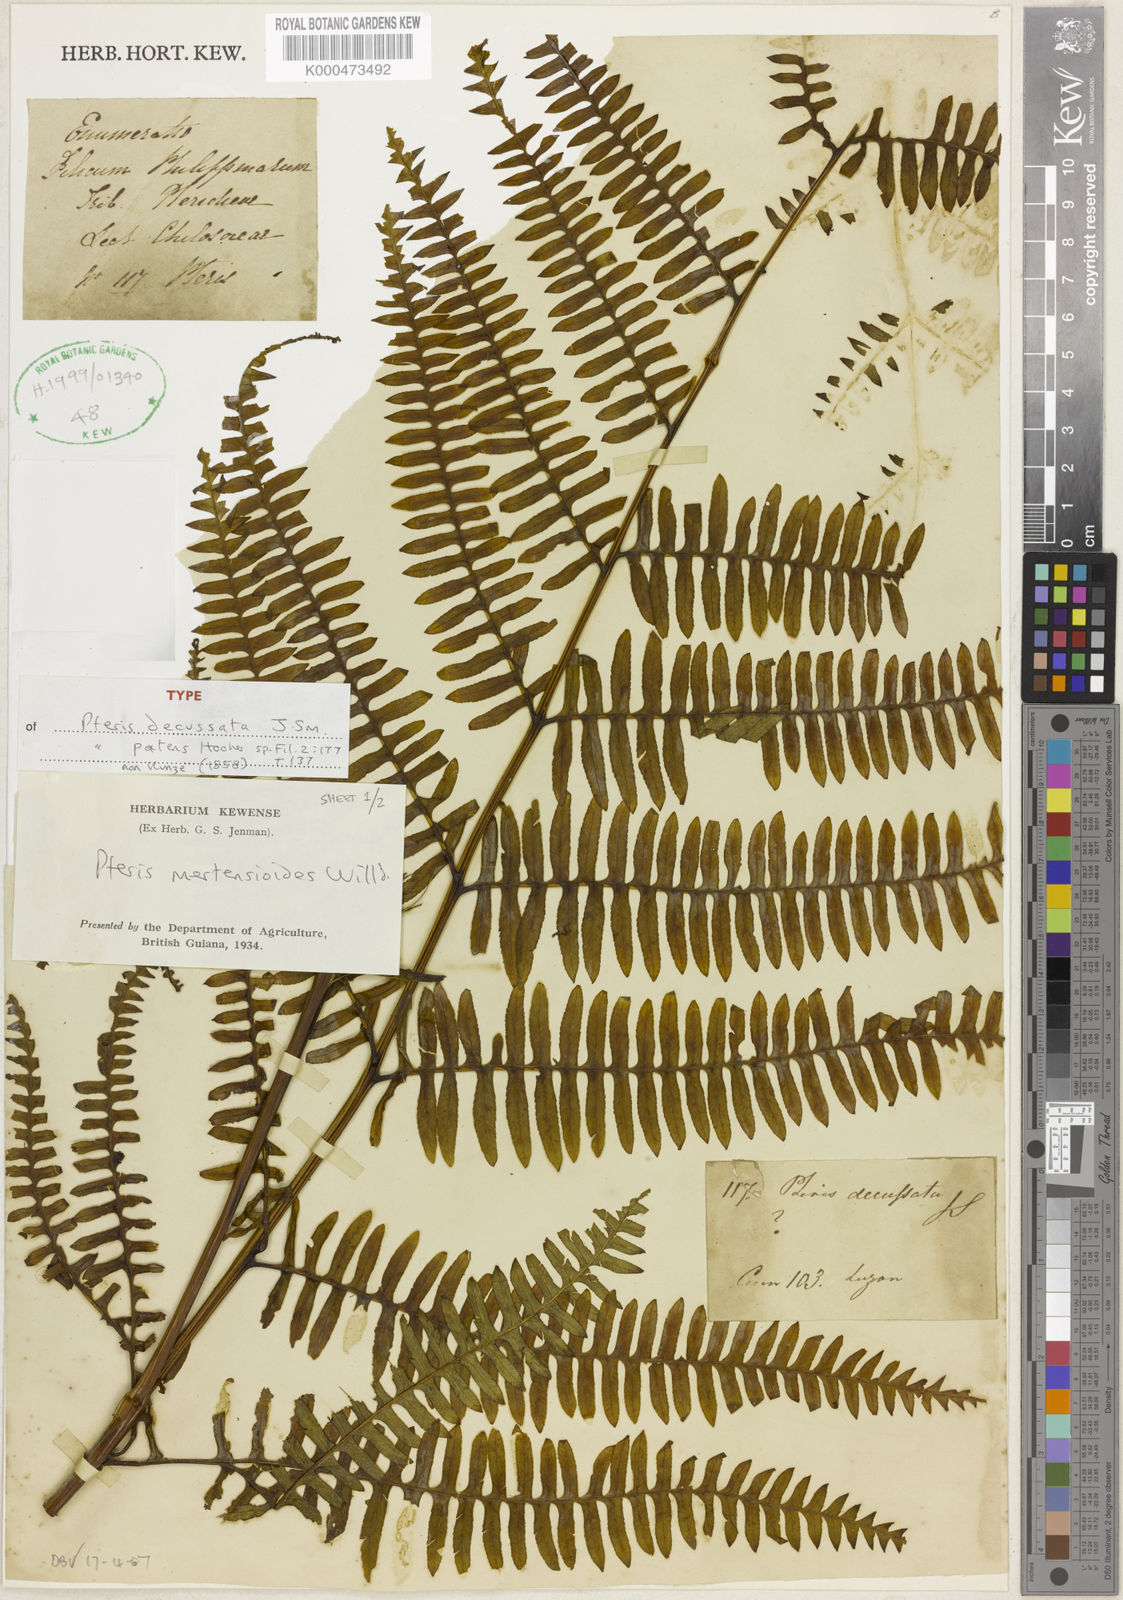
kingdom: Plantae
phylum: Tracheophyta
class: Polypodiopsida
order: Polypodiales
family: Pteridaceae
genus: Pteris
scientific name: Pteris mertensioides
